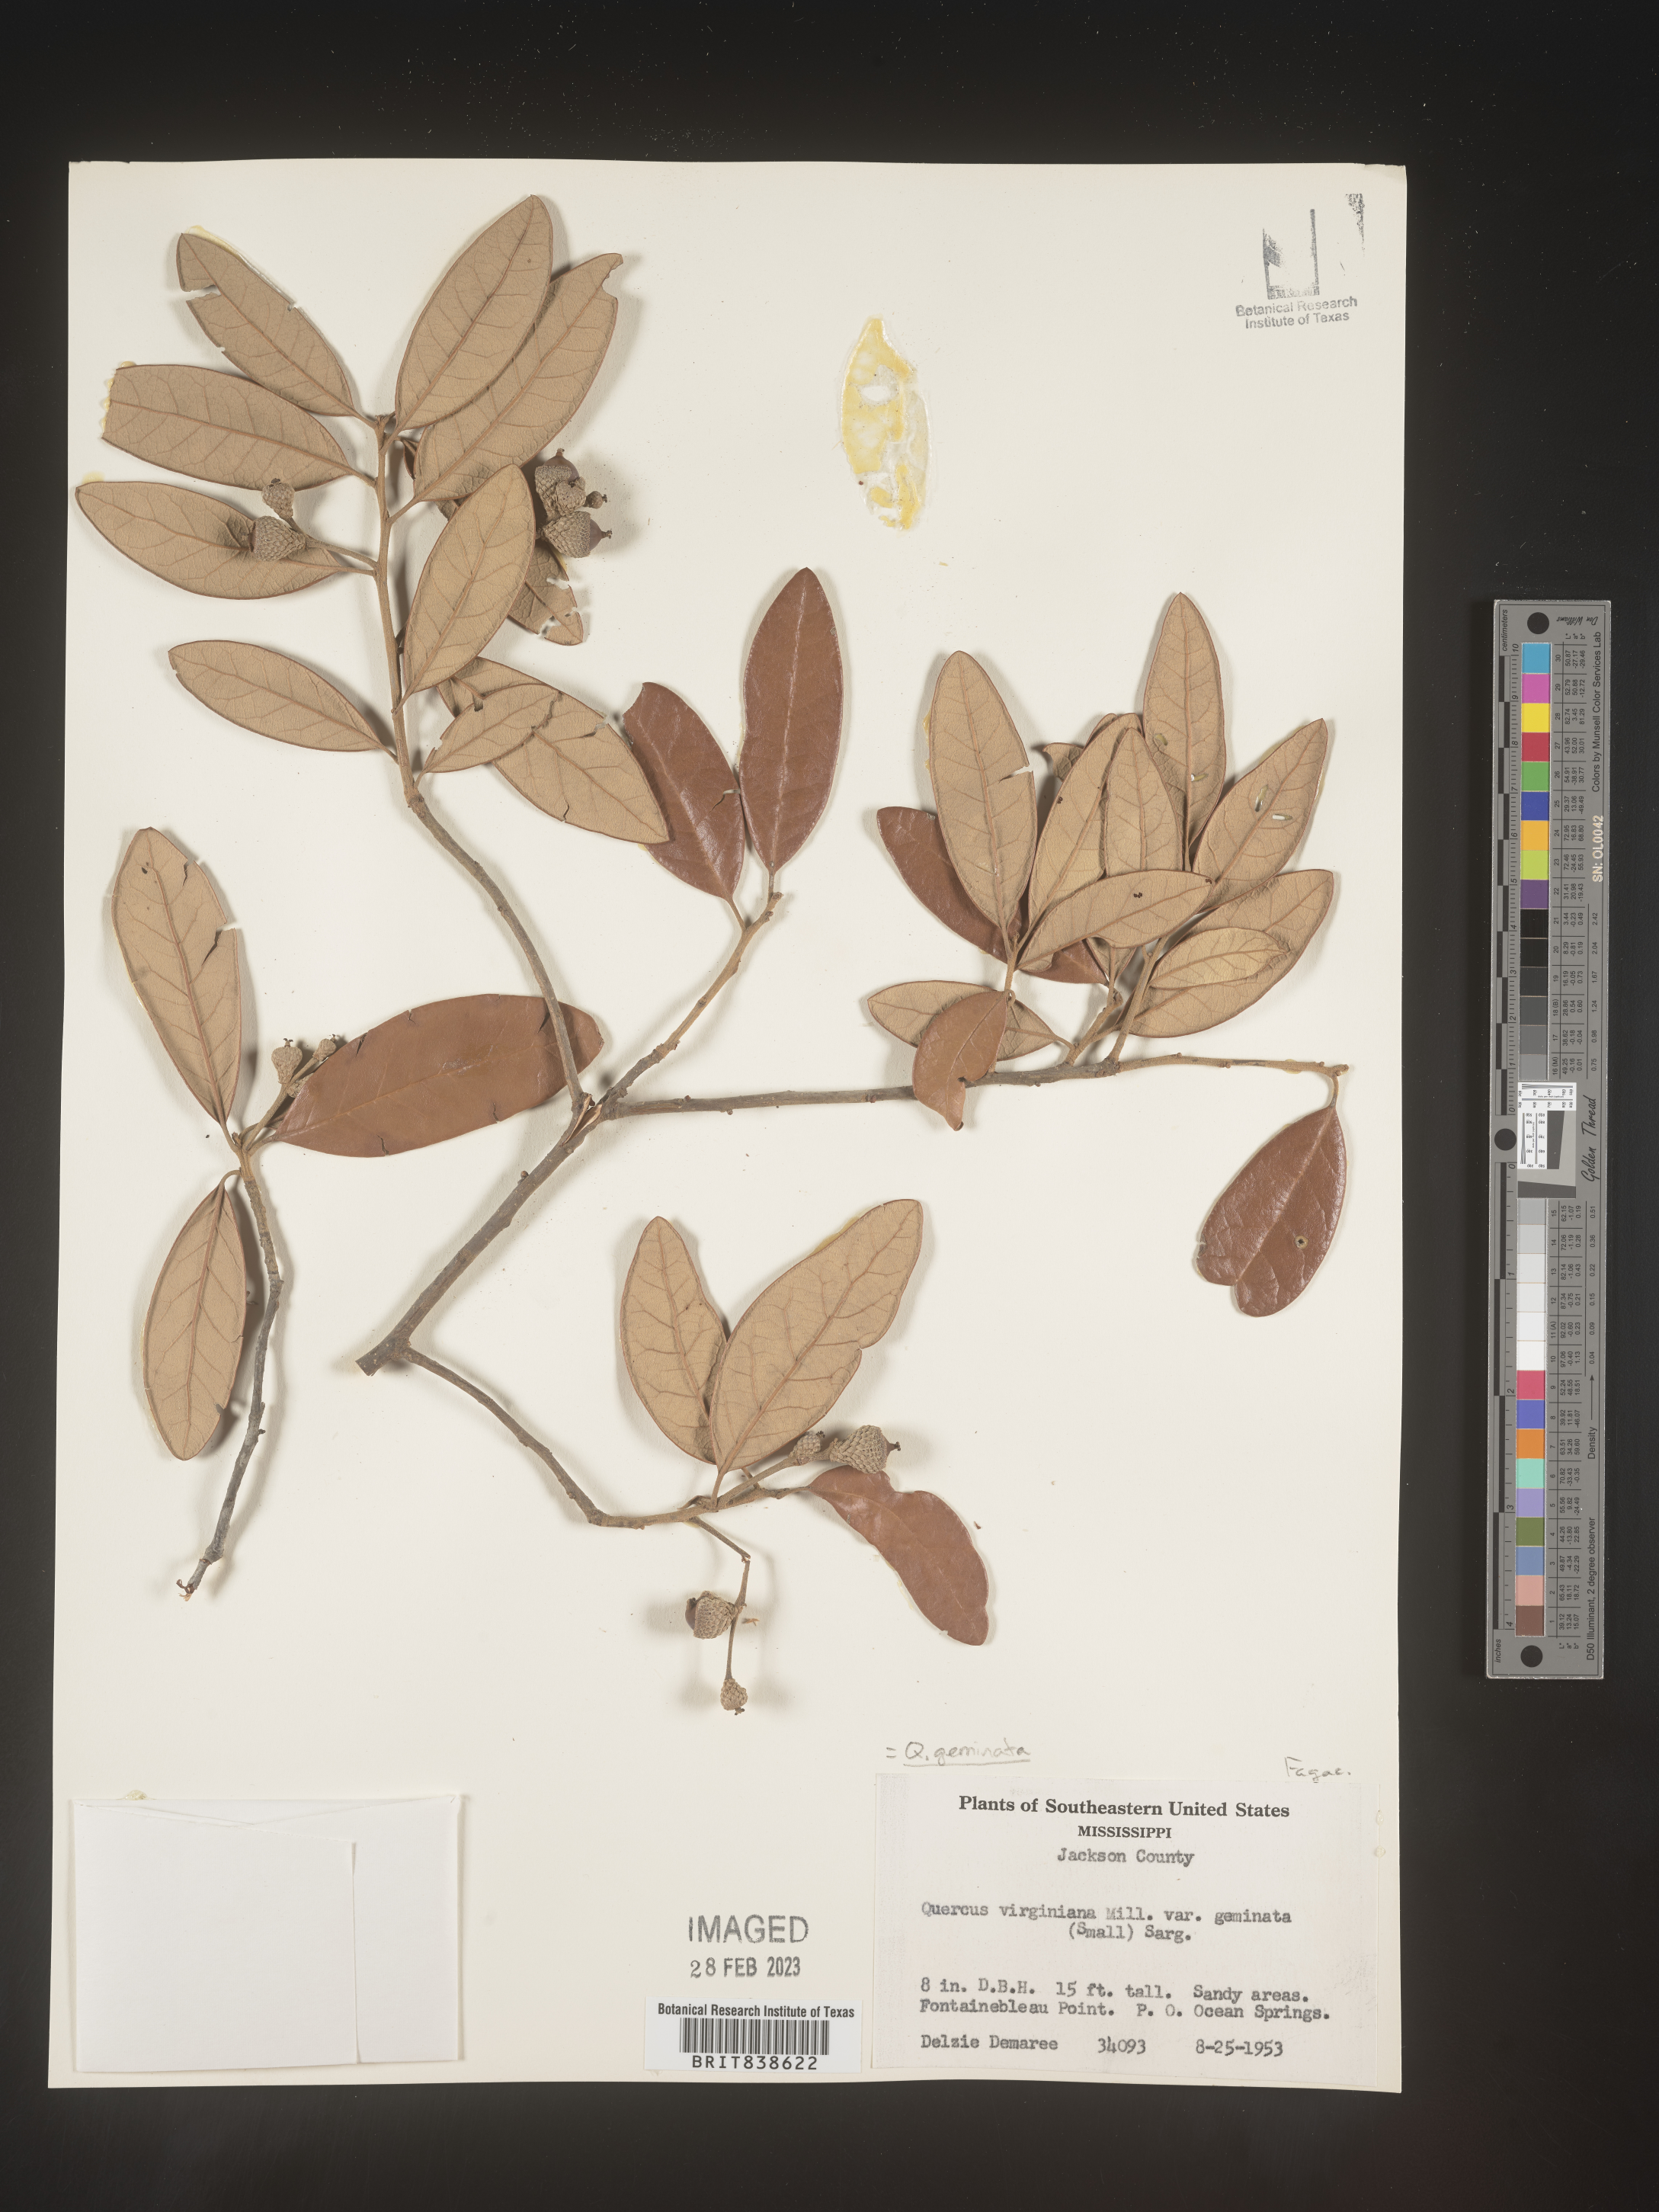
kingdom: Plantae
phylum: Tracheophyta
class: Magnoliopsida
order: Fagales
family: Fagaceae
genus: Quercus
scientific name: Quercus geminata
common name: Sand live oak
